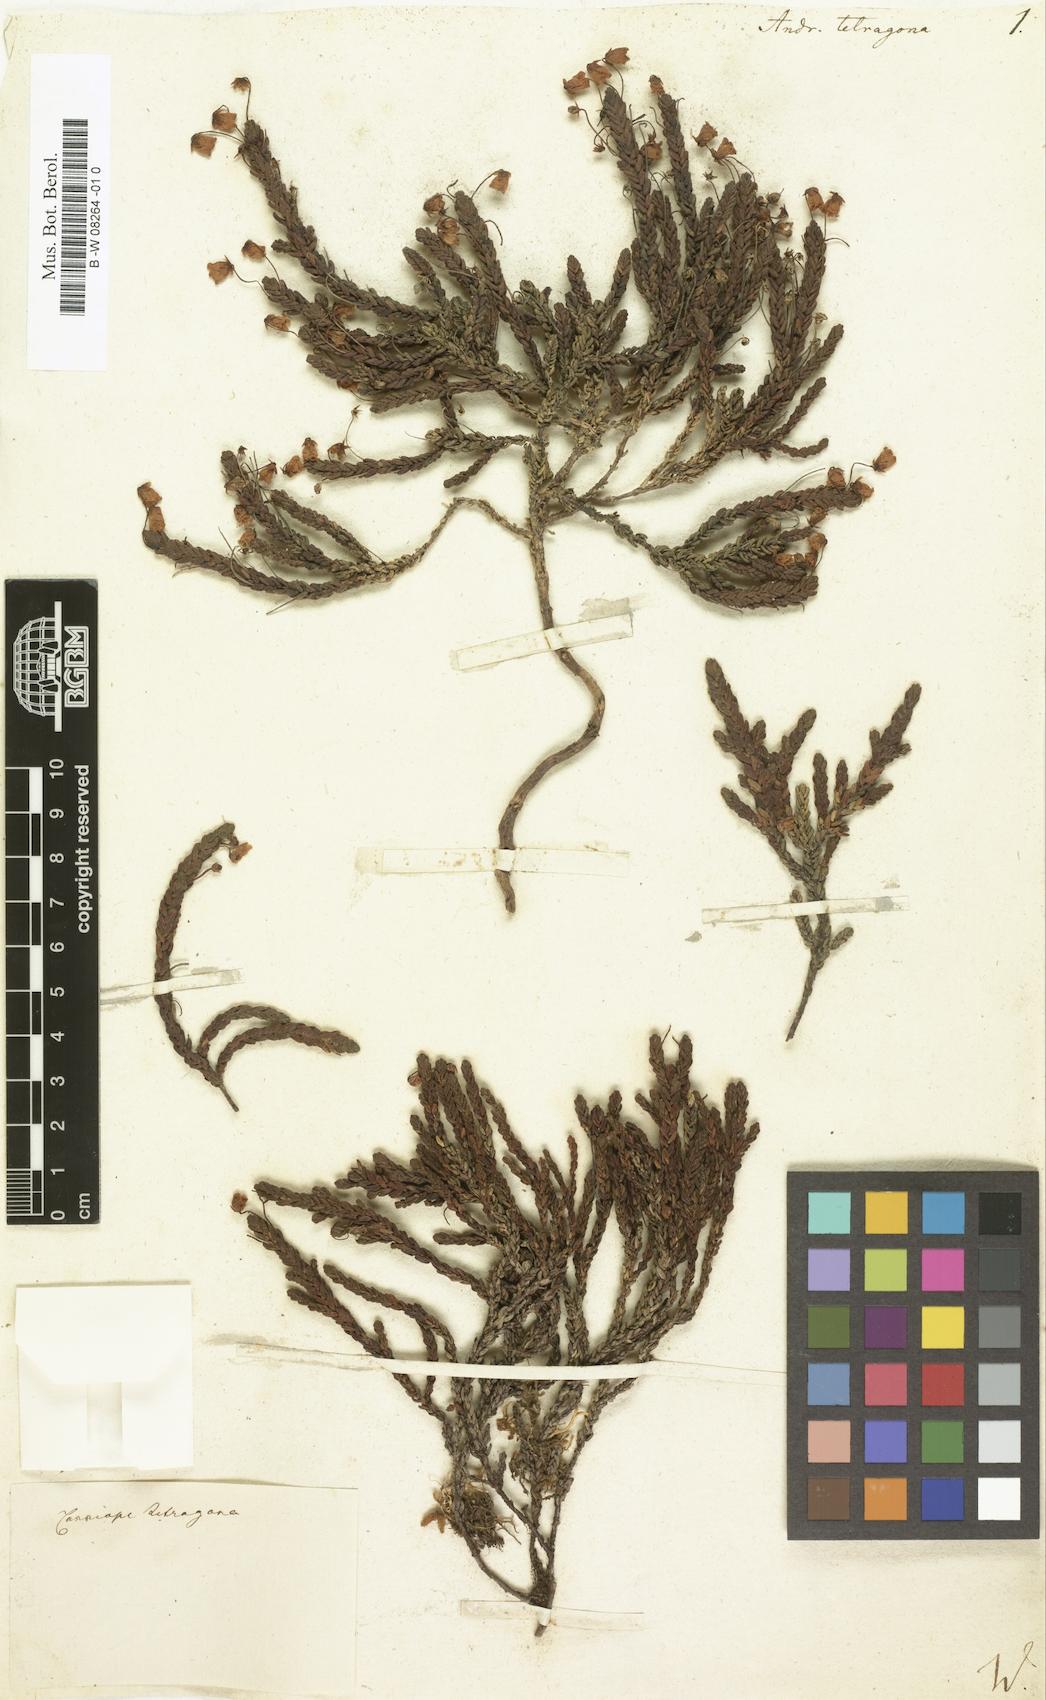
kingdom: Plantae
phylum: Tracheophyta
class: Magnoliopsida
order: Ericales
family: Ericaceae
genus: Cassiope
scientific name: Cassiope tetragona
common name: Arctic bell heather
